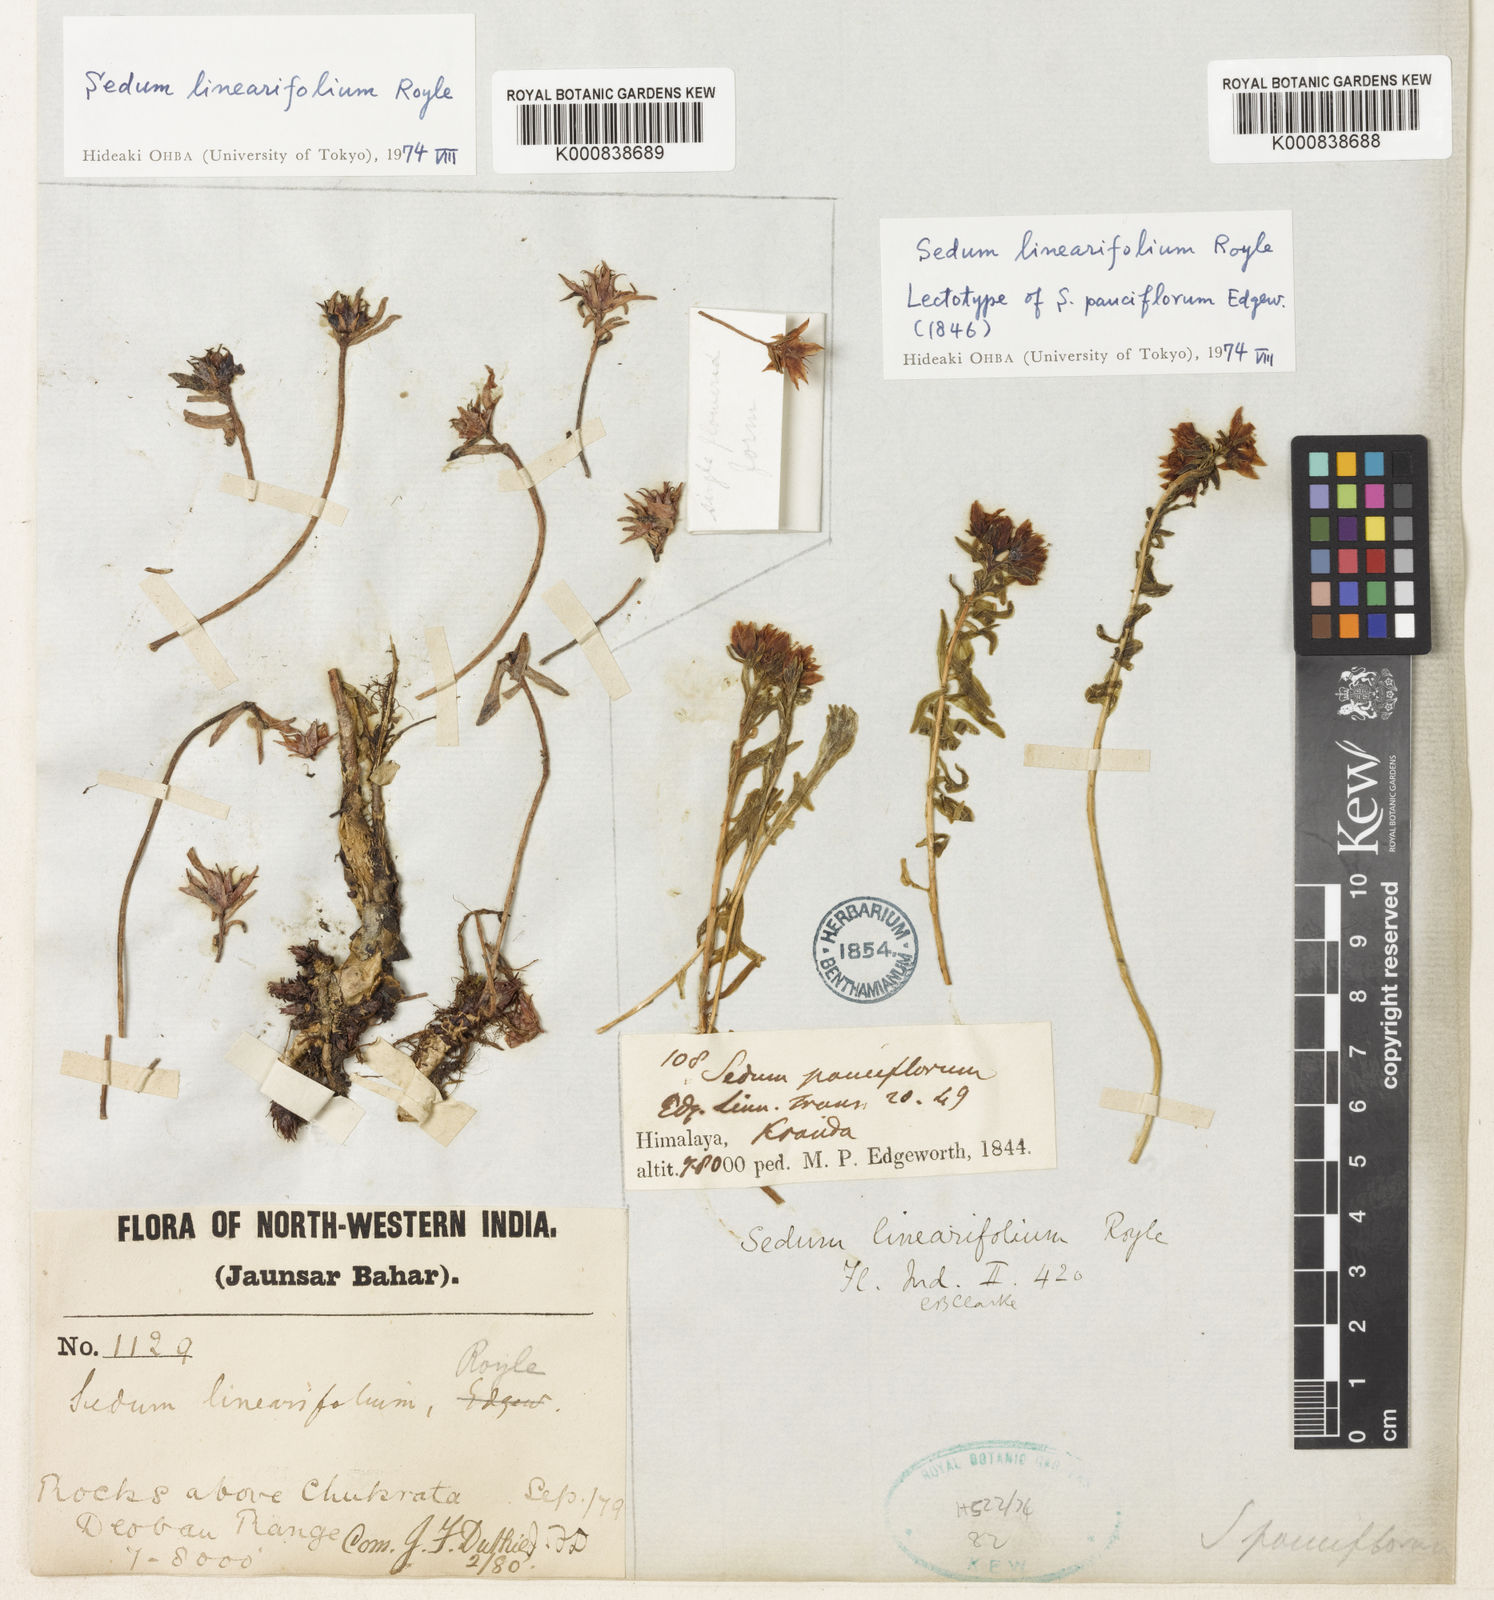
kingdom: Plantae
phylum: Tracheophyta
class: Magnoliopsida
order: Saxifragales
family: Crassulaceae
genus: Rhodiola
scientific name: Rhodiola sinuata
